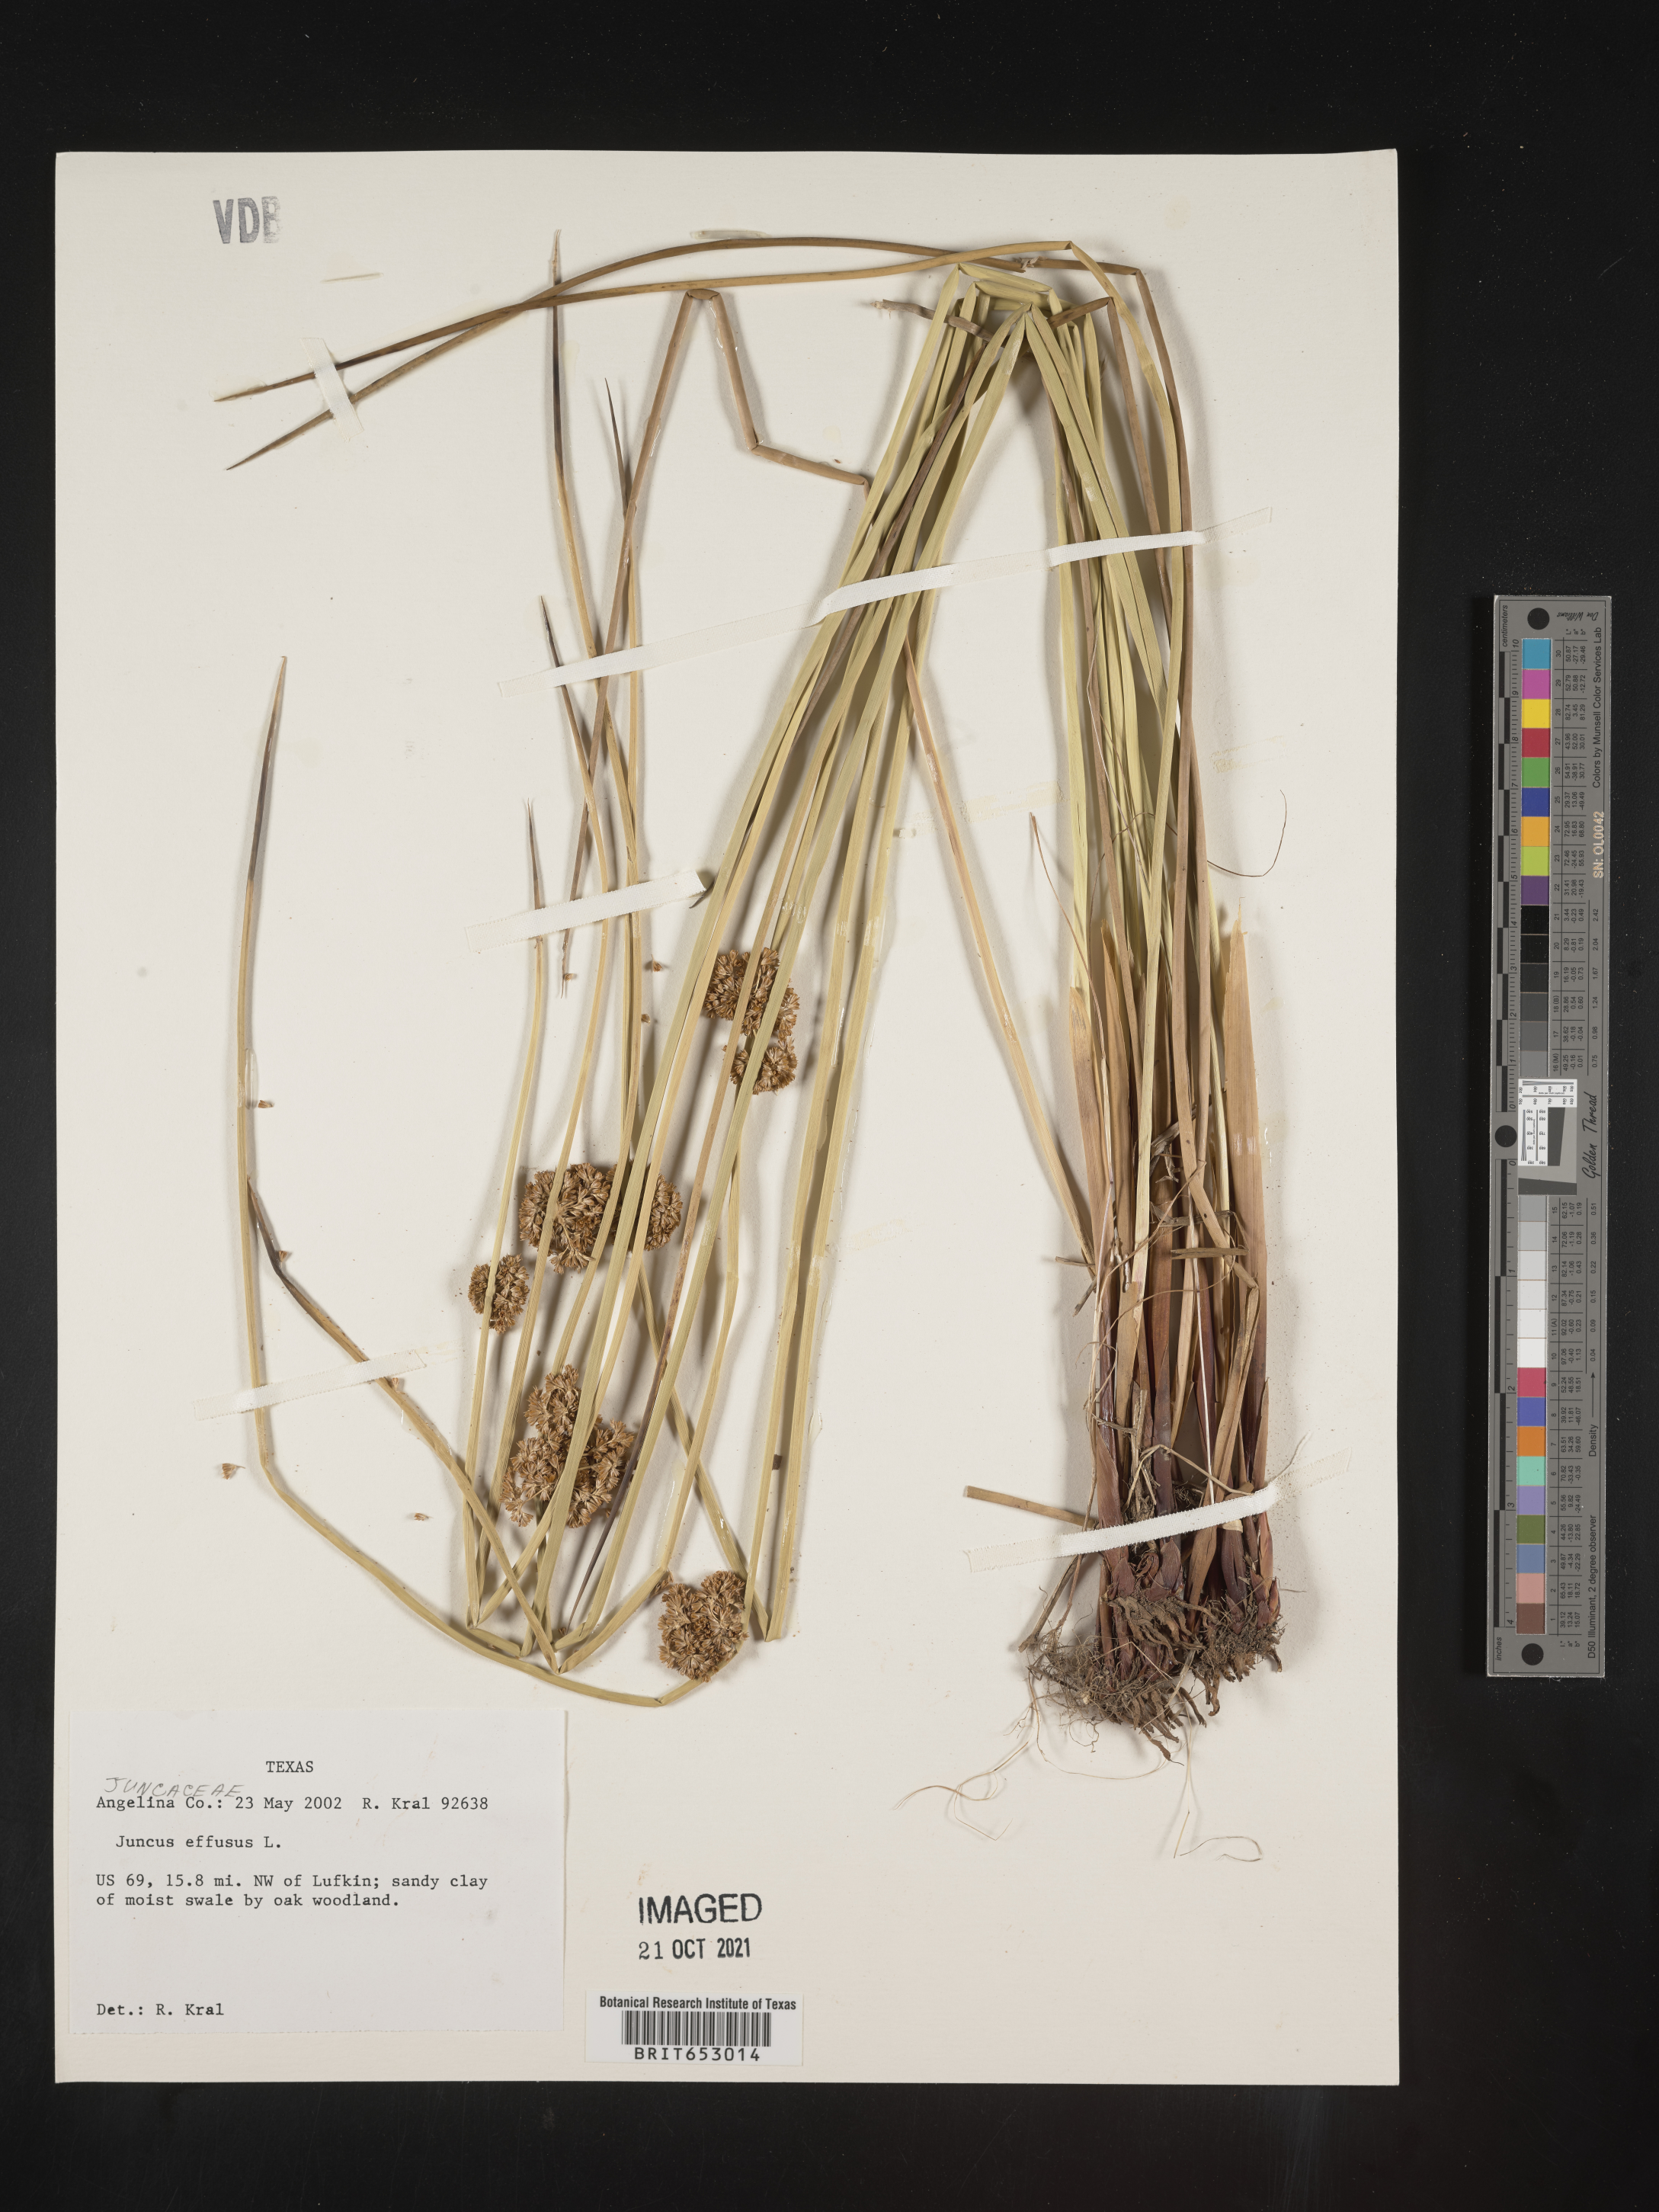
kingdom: Plantae
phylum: Tracheophyta
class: Liliopsida
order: Poales
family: Juncaceae
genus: Juncus
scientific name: Juncus effusus
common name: Soft rush
